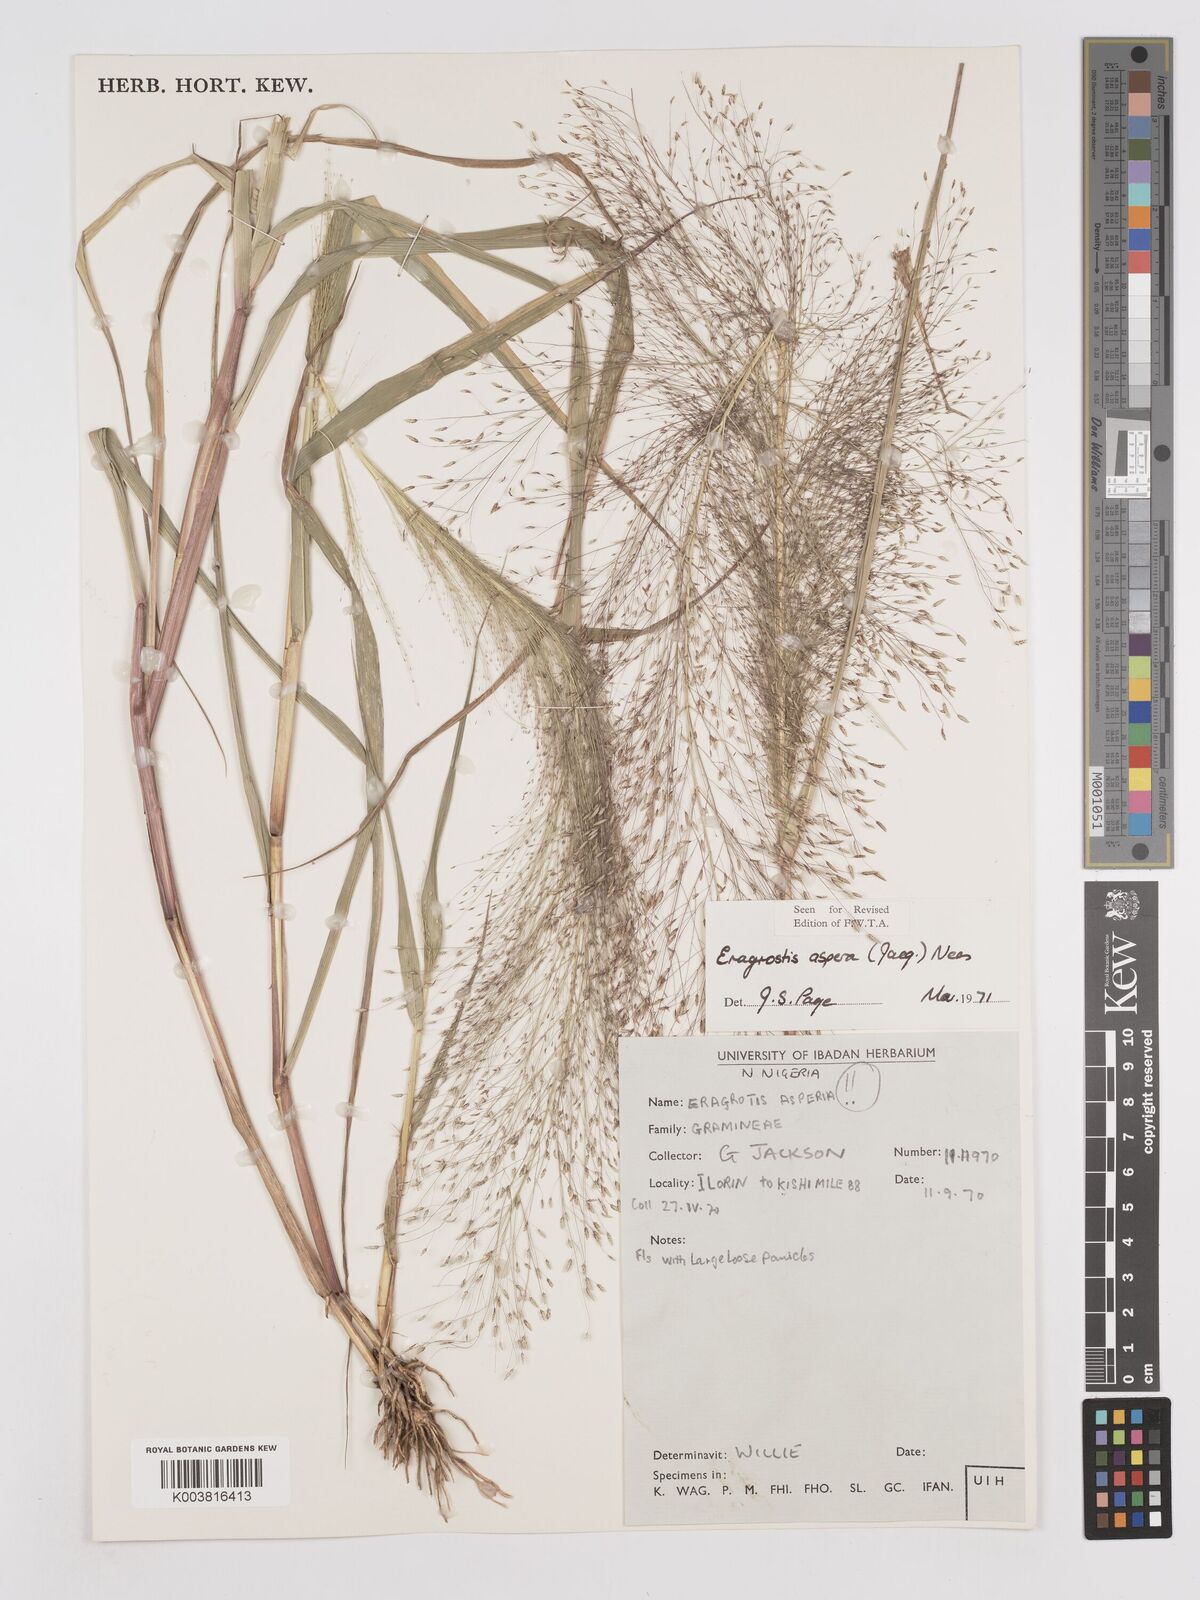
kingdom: Plantae
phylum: Tracheophyta
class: Liliopsida
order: Poales
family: Poaceae
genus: Eragrostis
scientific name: Eragrostis aspera
